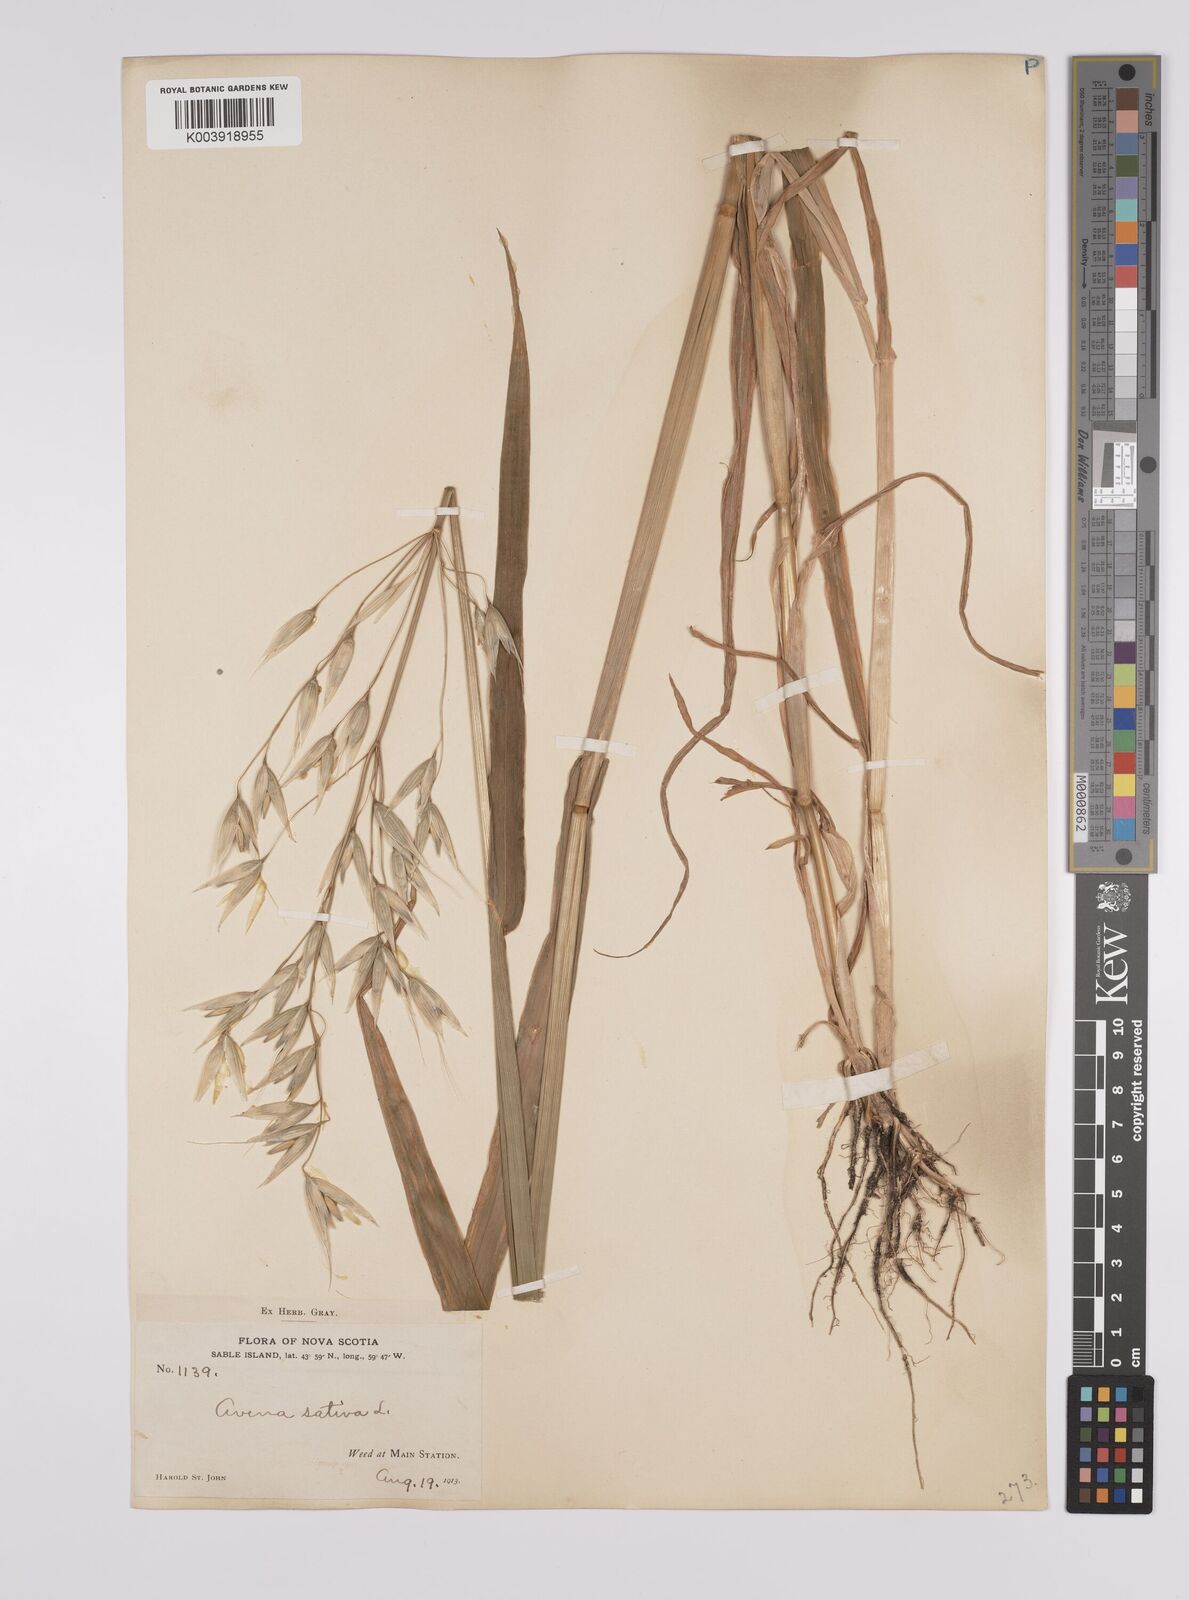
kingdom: Plantae
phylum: Tracheophyta
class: Liliopsida
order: Poales
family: Poaceae
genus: Avena
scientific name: Avena sativa
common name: Oat
